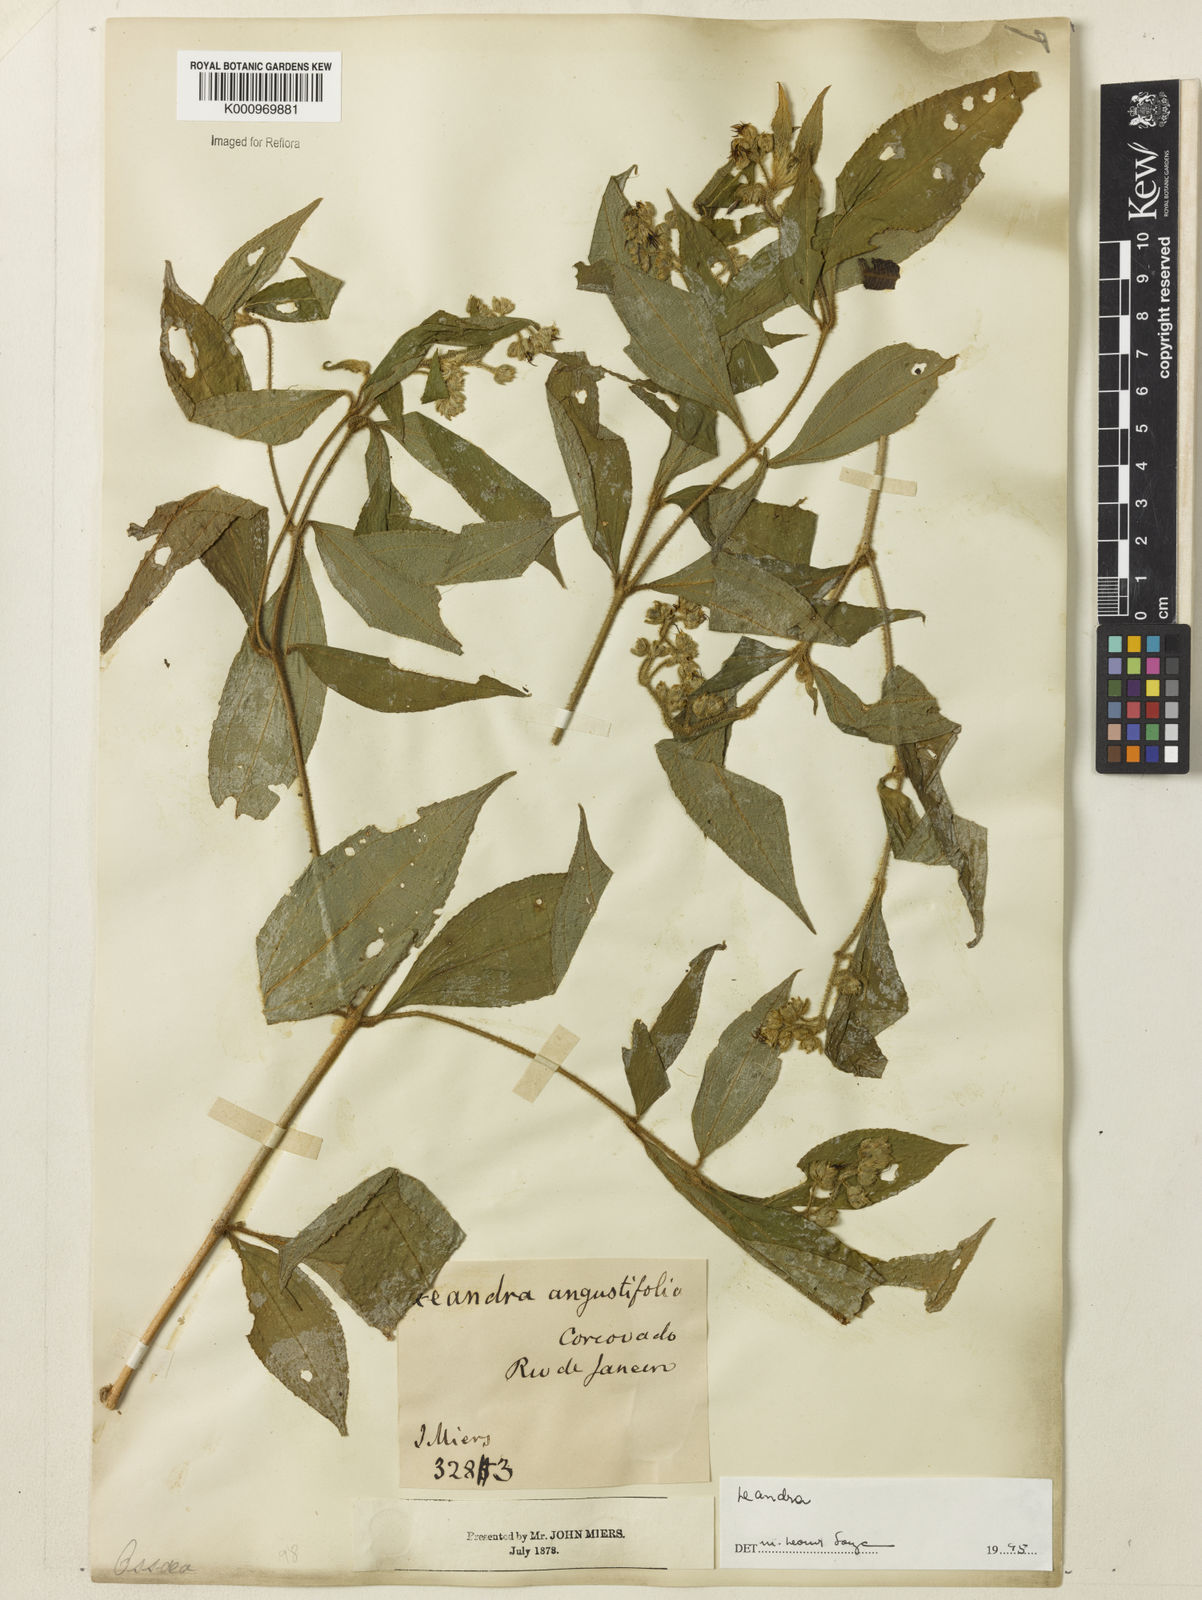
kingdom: Plantae
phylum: Tracheophyta
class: Magnoliopsida
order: Myrtales
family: Melastomataceae
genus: Miconia
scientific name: Miconia
